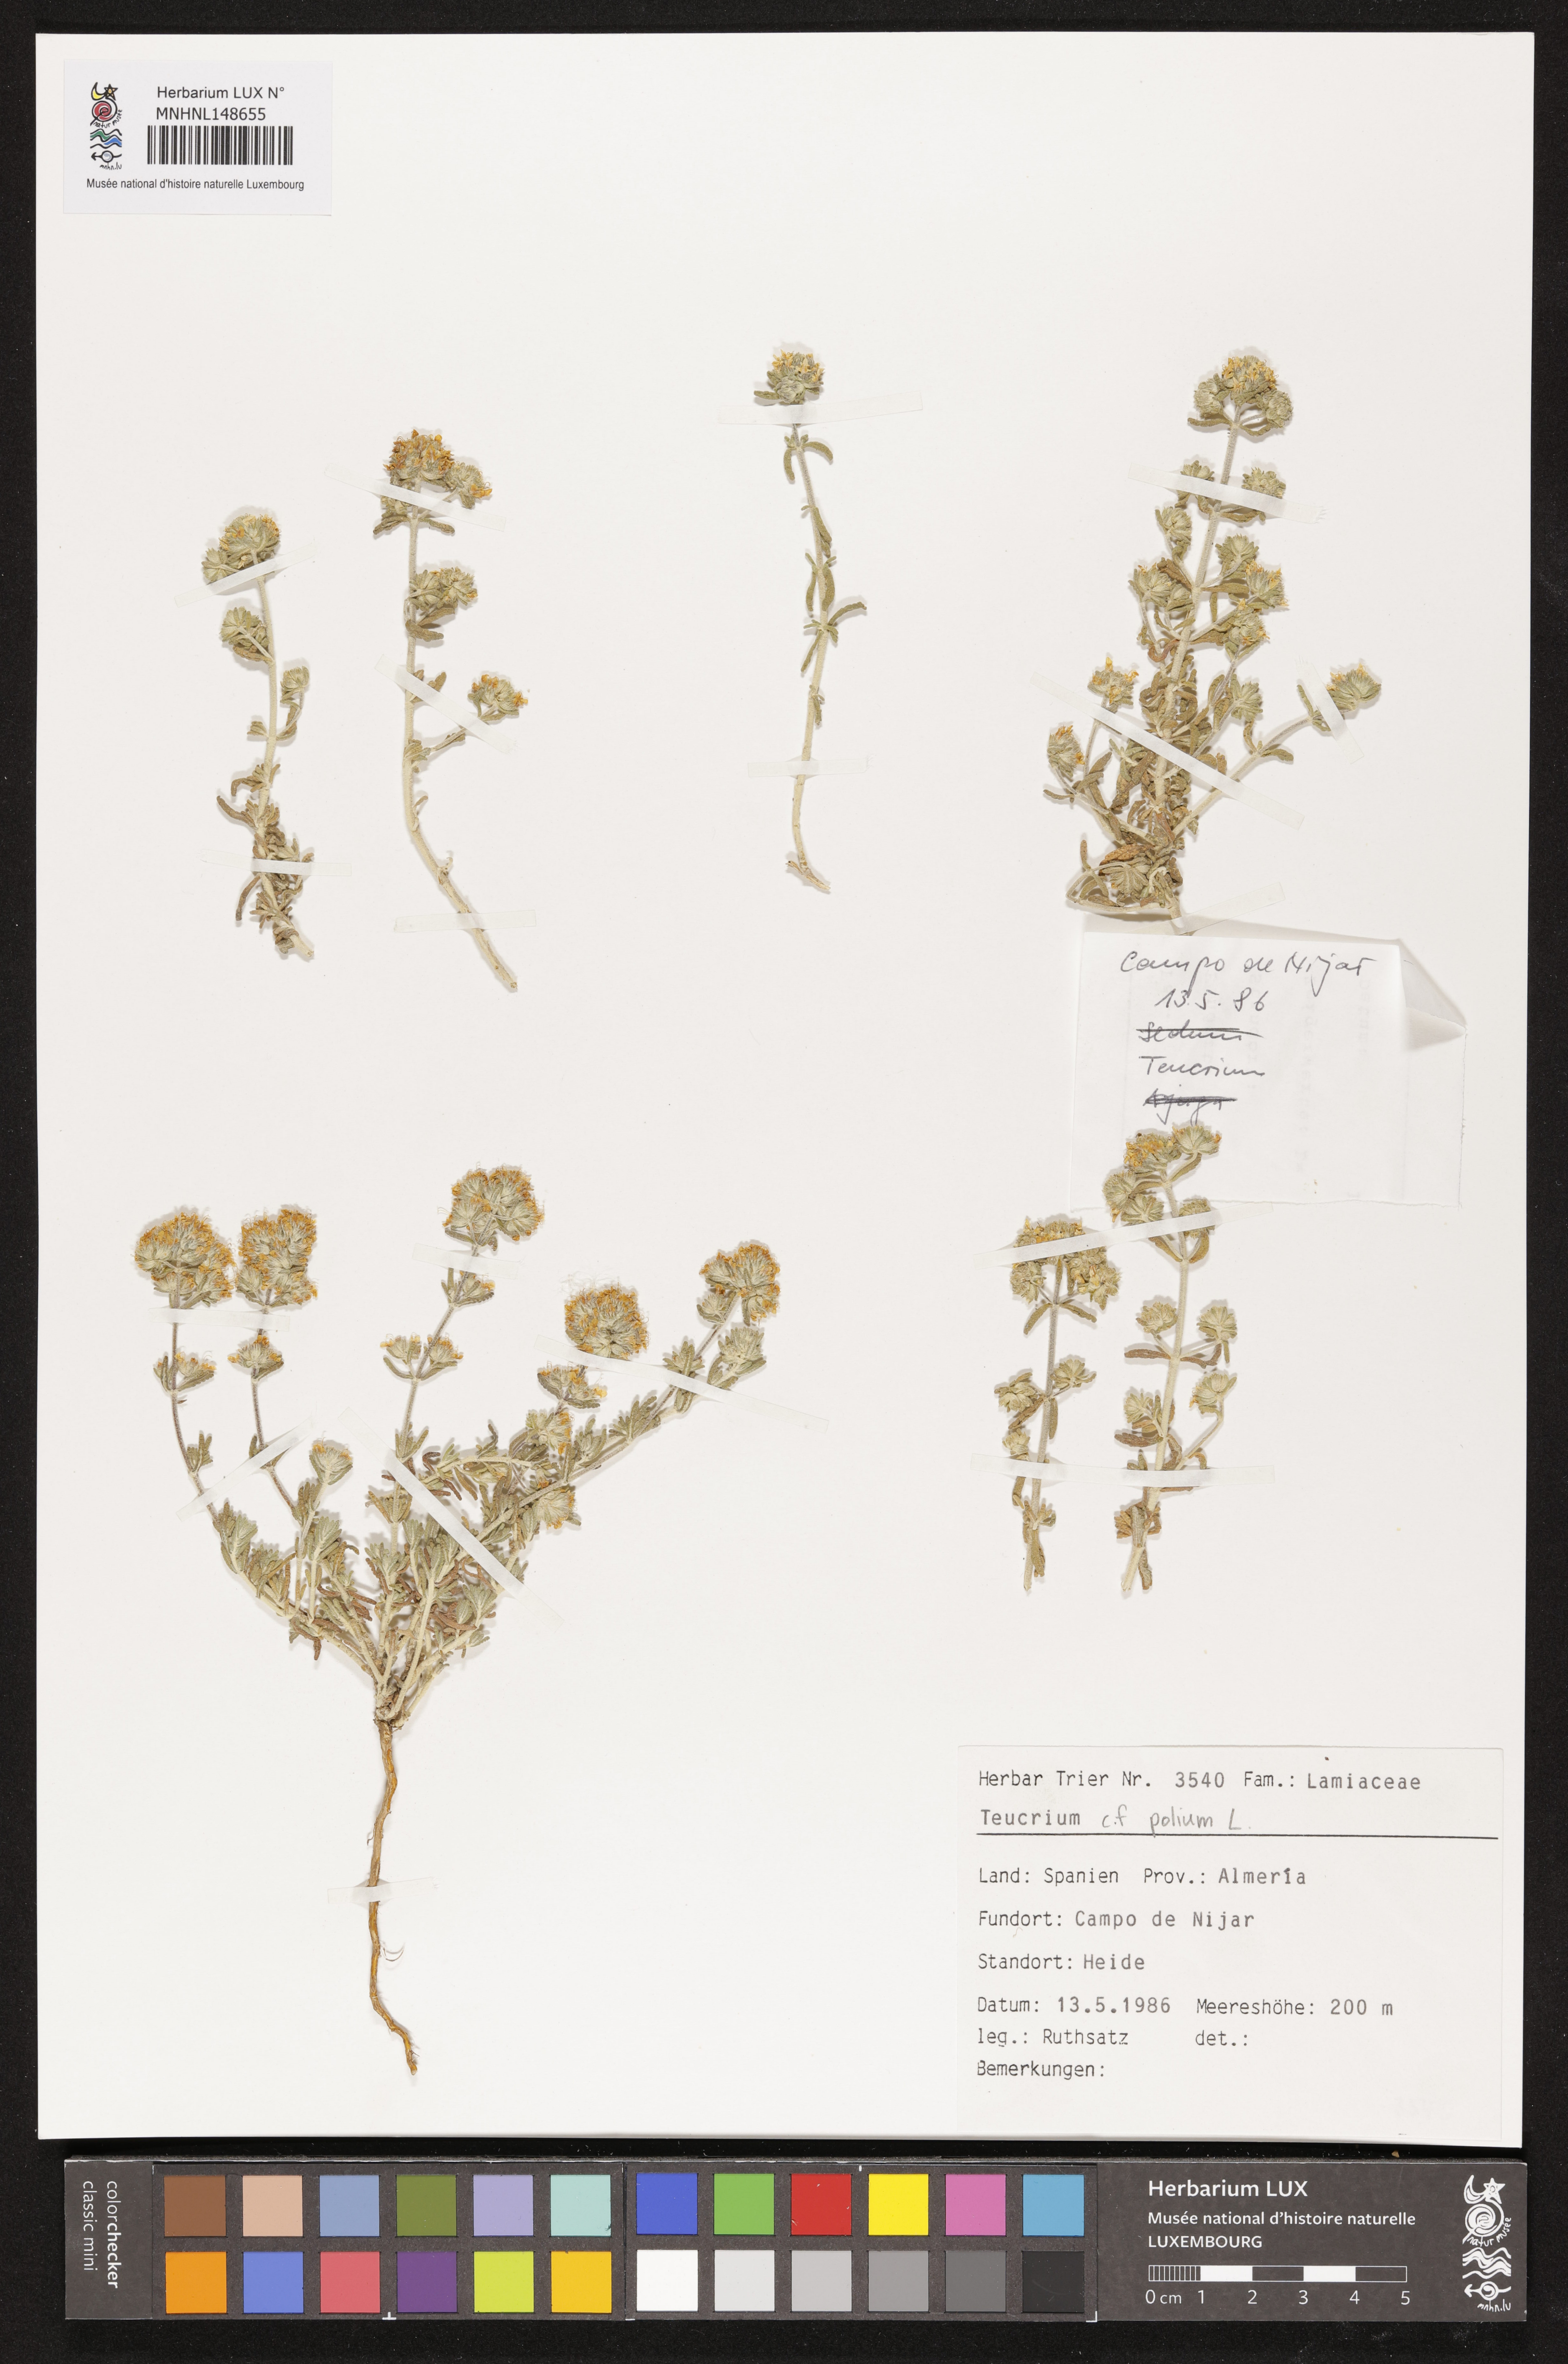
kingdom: Plantae
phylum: Tracheophyta
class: Magnoliopsida
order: Lamiales
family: Lamiaceae
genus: Teucrium
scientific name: Teucrium polium
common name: Poley
